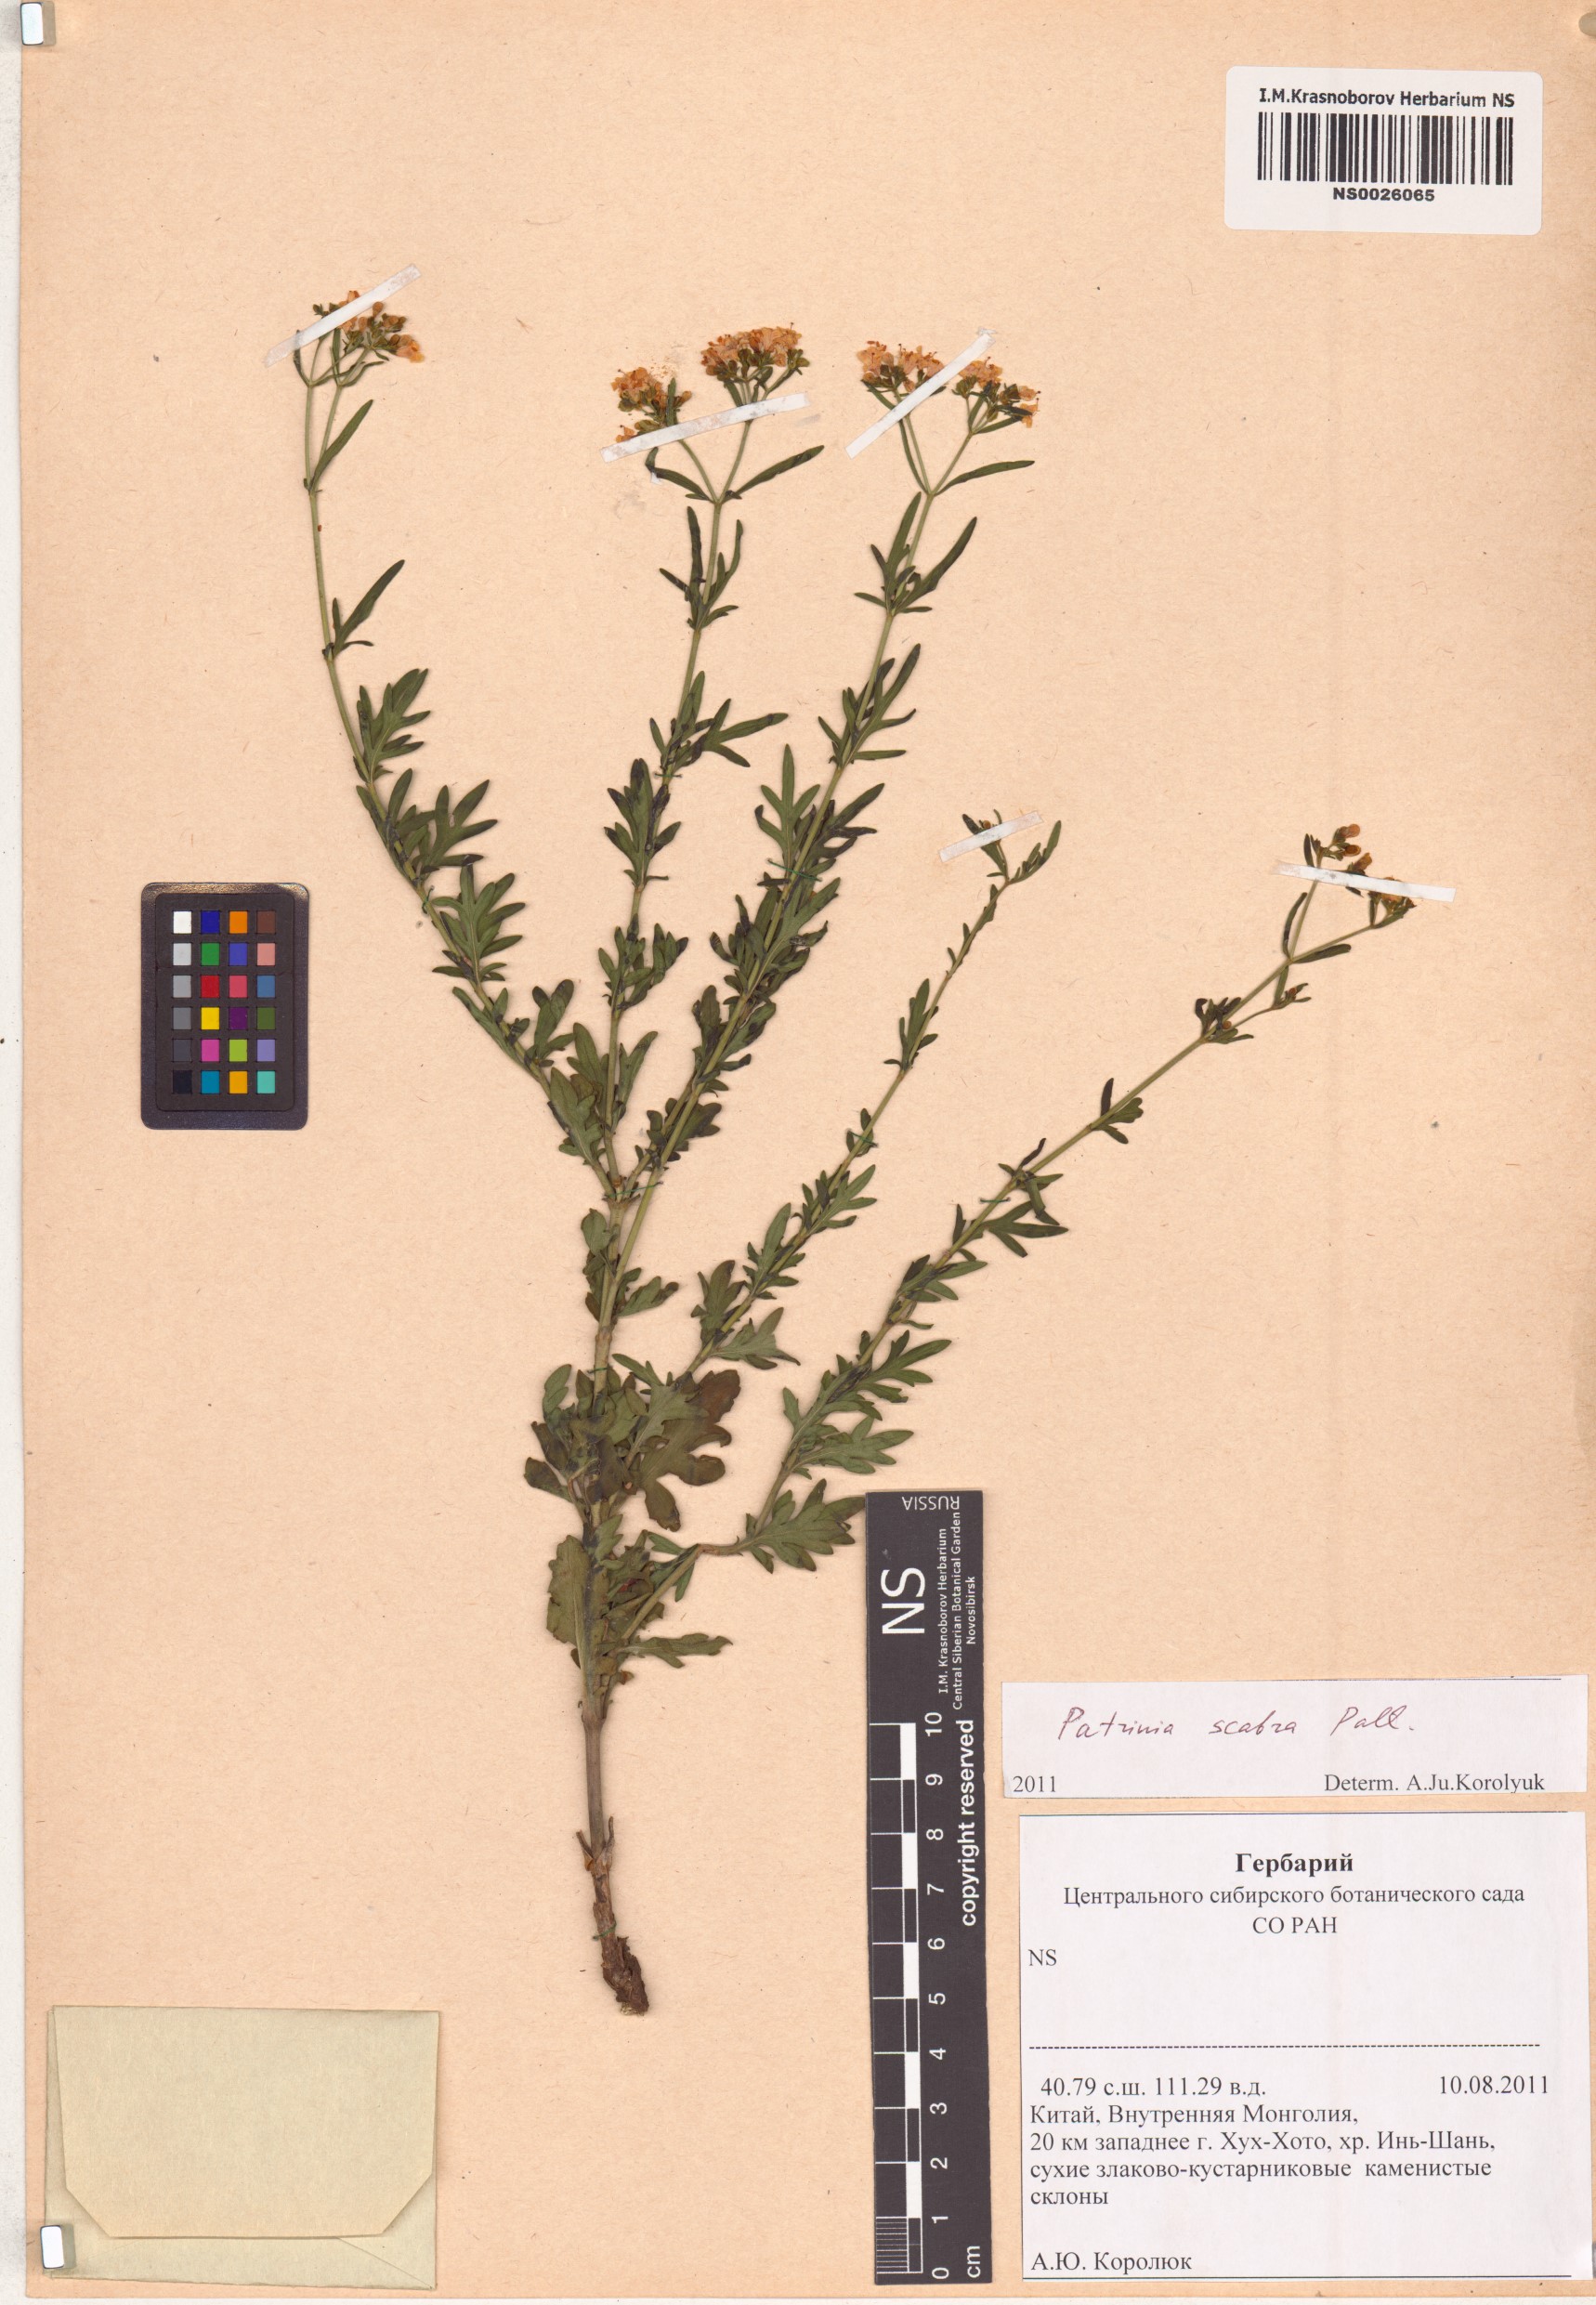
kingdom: Plantae
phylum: Tracheophyta
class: Magnoliopsida
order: Dipsacales
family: Caprifoliaceae
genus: Patrinia
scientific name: Patrinia scabra
